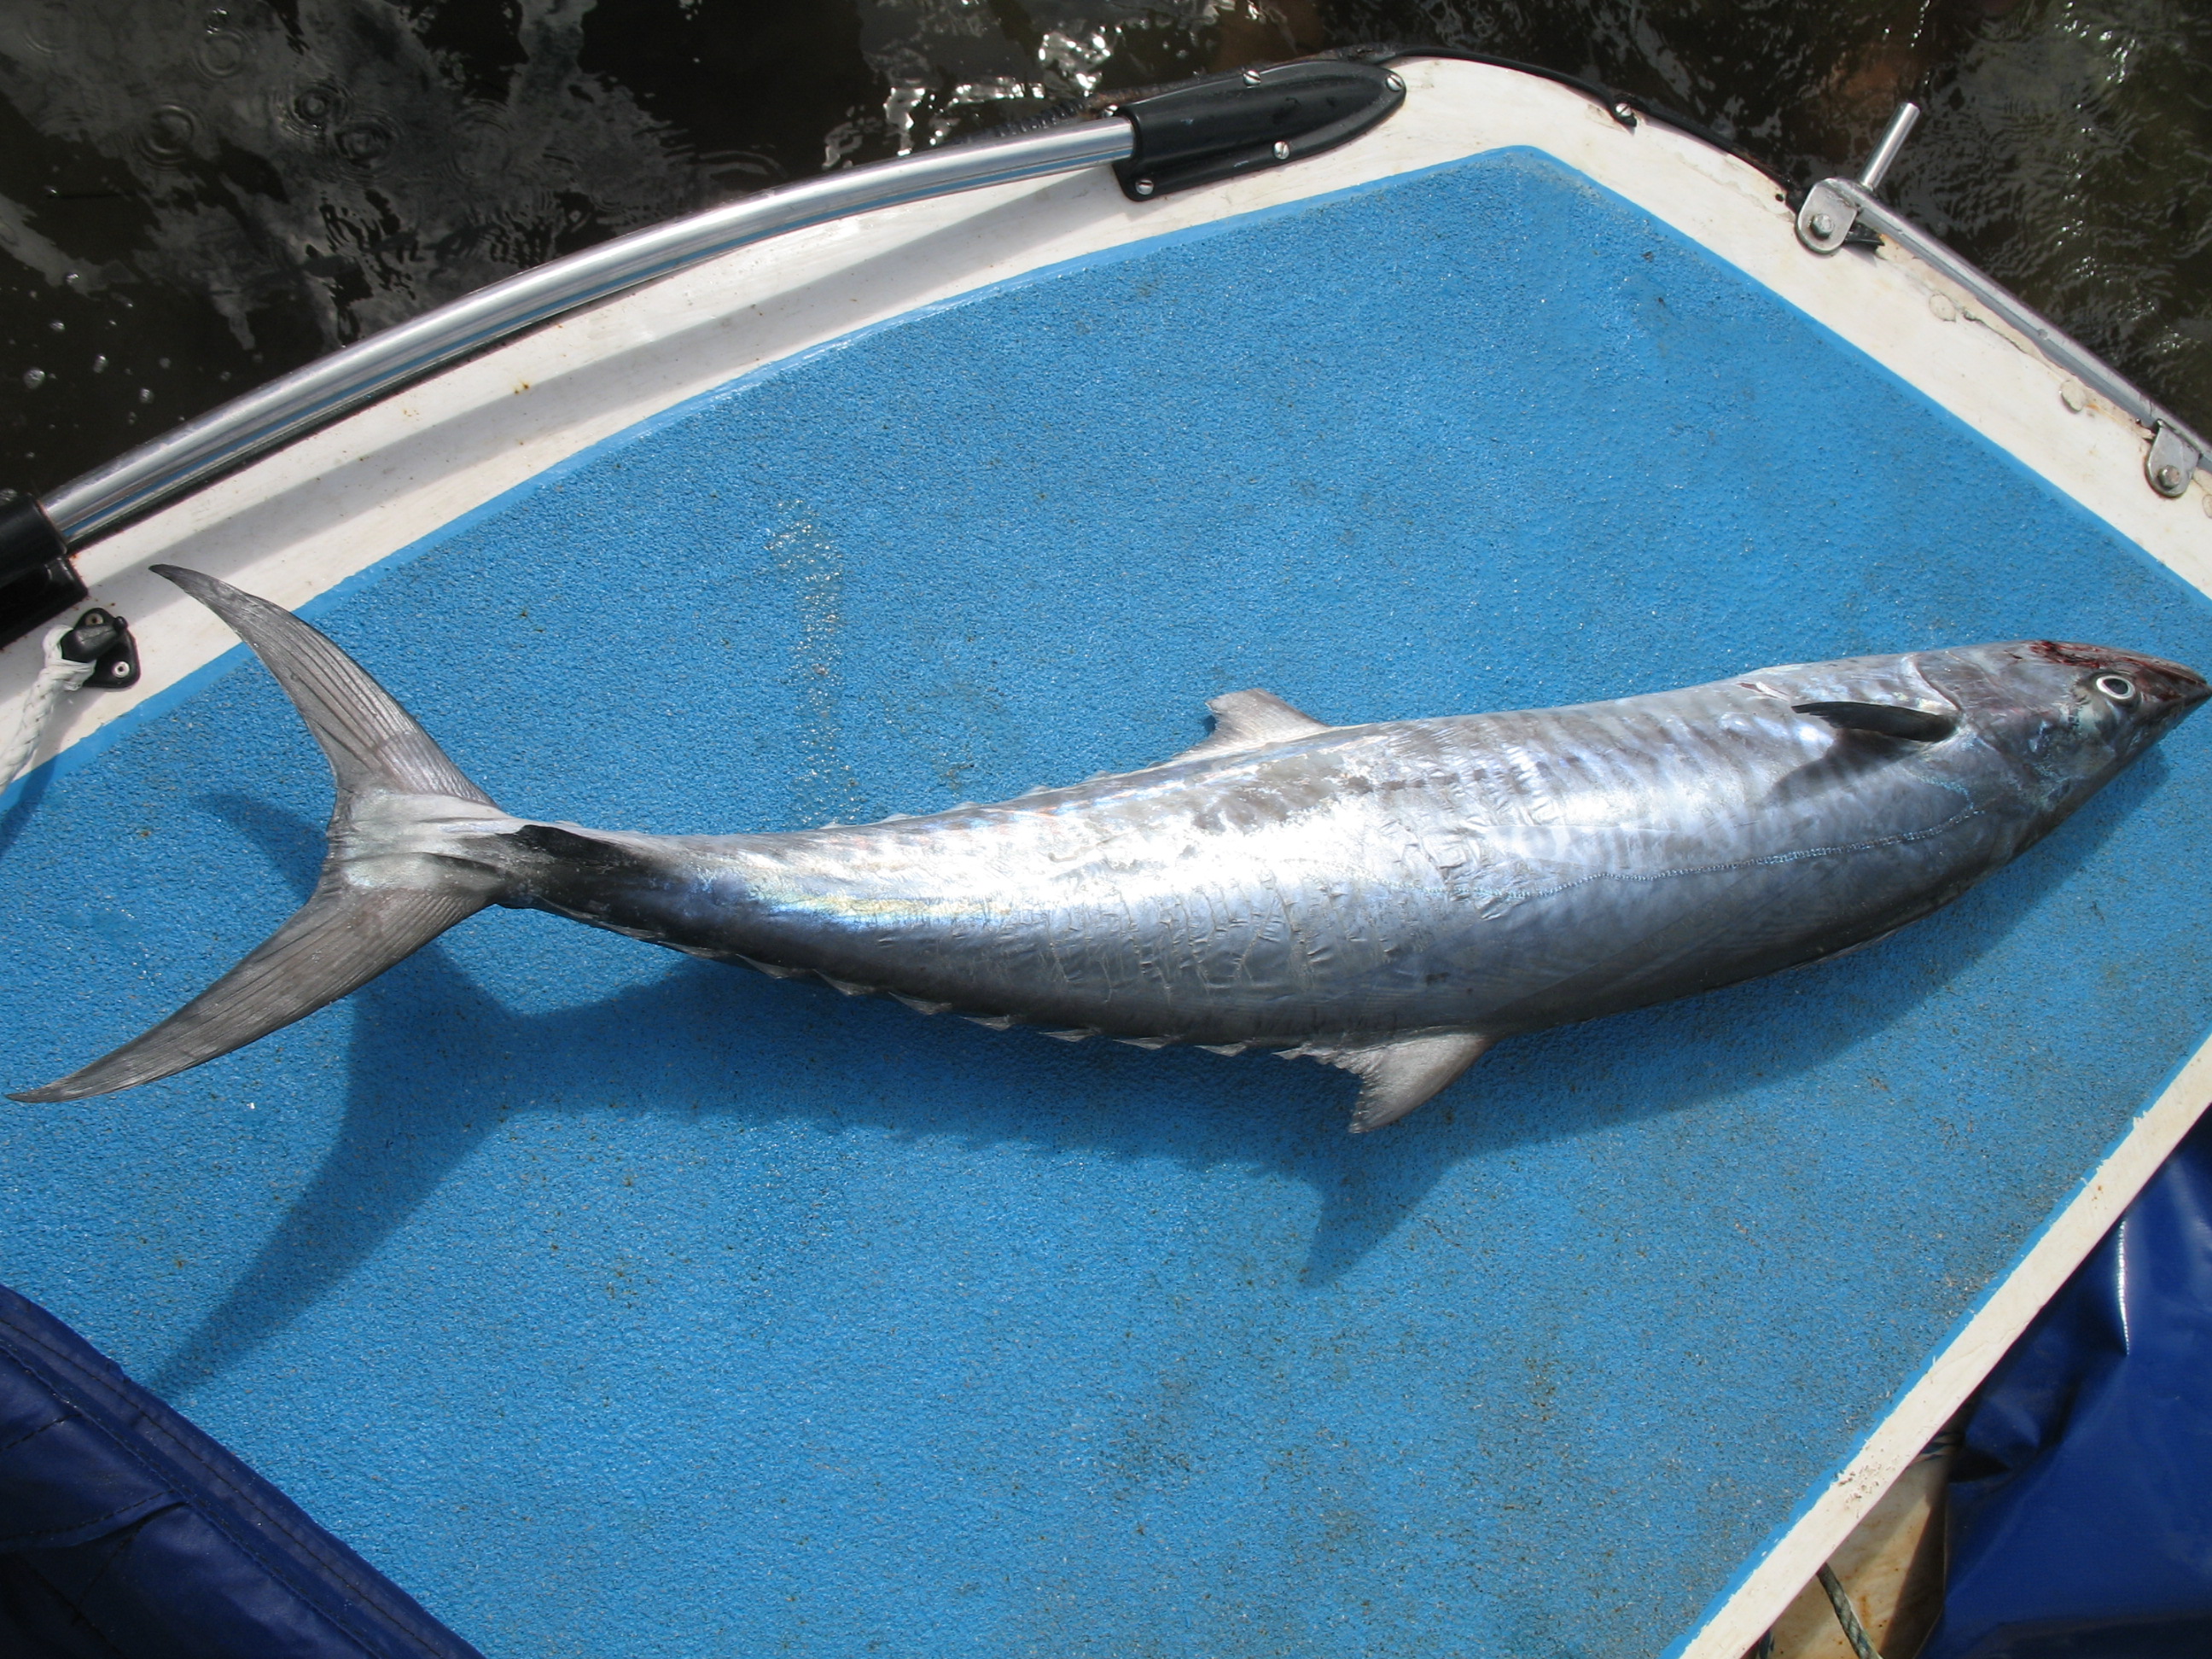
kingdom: Animalia
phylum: Chordata
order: Perciformes
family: Scombridae
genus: Scomberomorus
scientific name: Scomberomorus commerson
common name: Narrow-barred spanish mackerel
